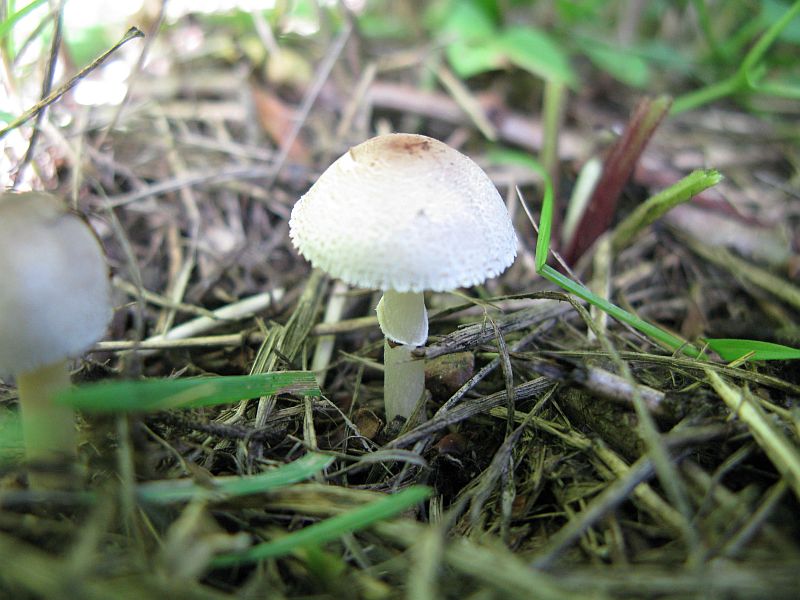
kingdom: Fungi
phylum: Basidiomycota
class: Agaricomycetes
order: Agaricales
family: Agaricaceae
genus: Lepiota
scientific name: Lepiota lilacea
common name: lillabrun parasolhat
